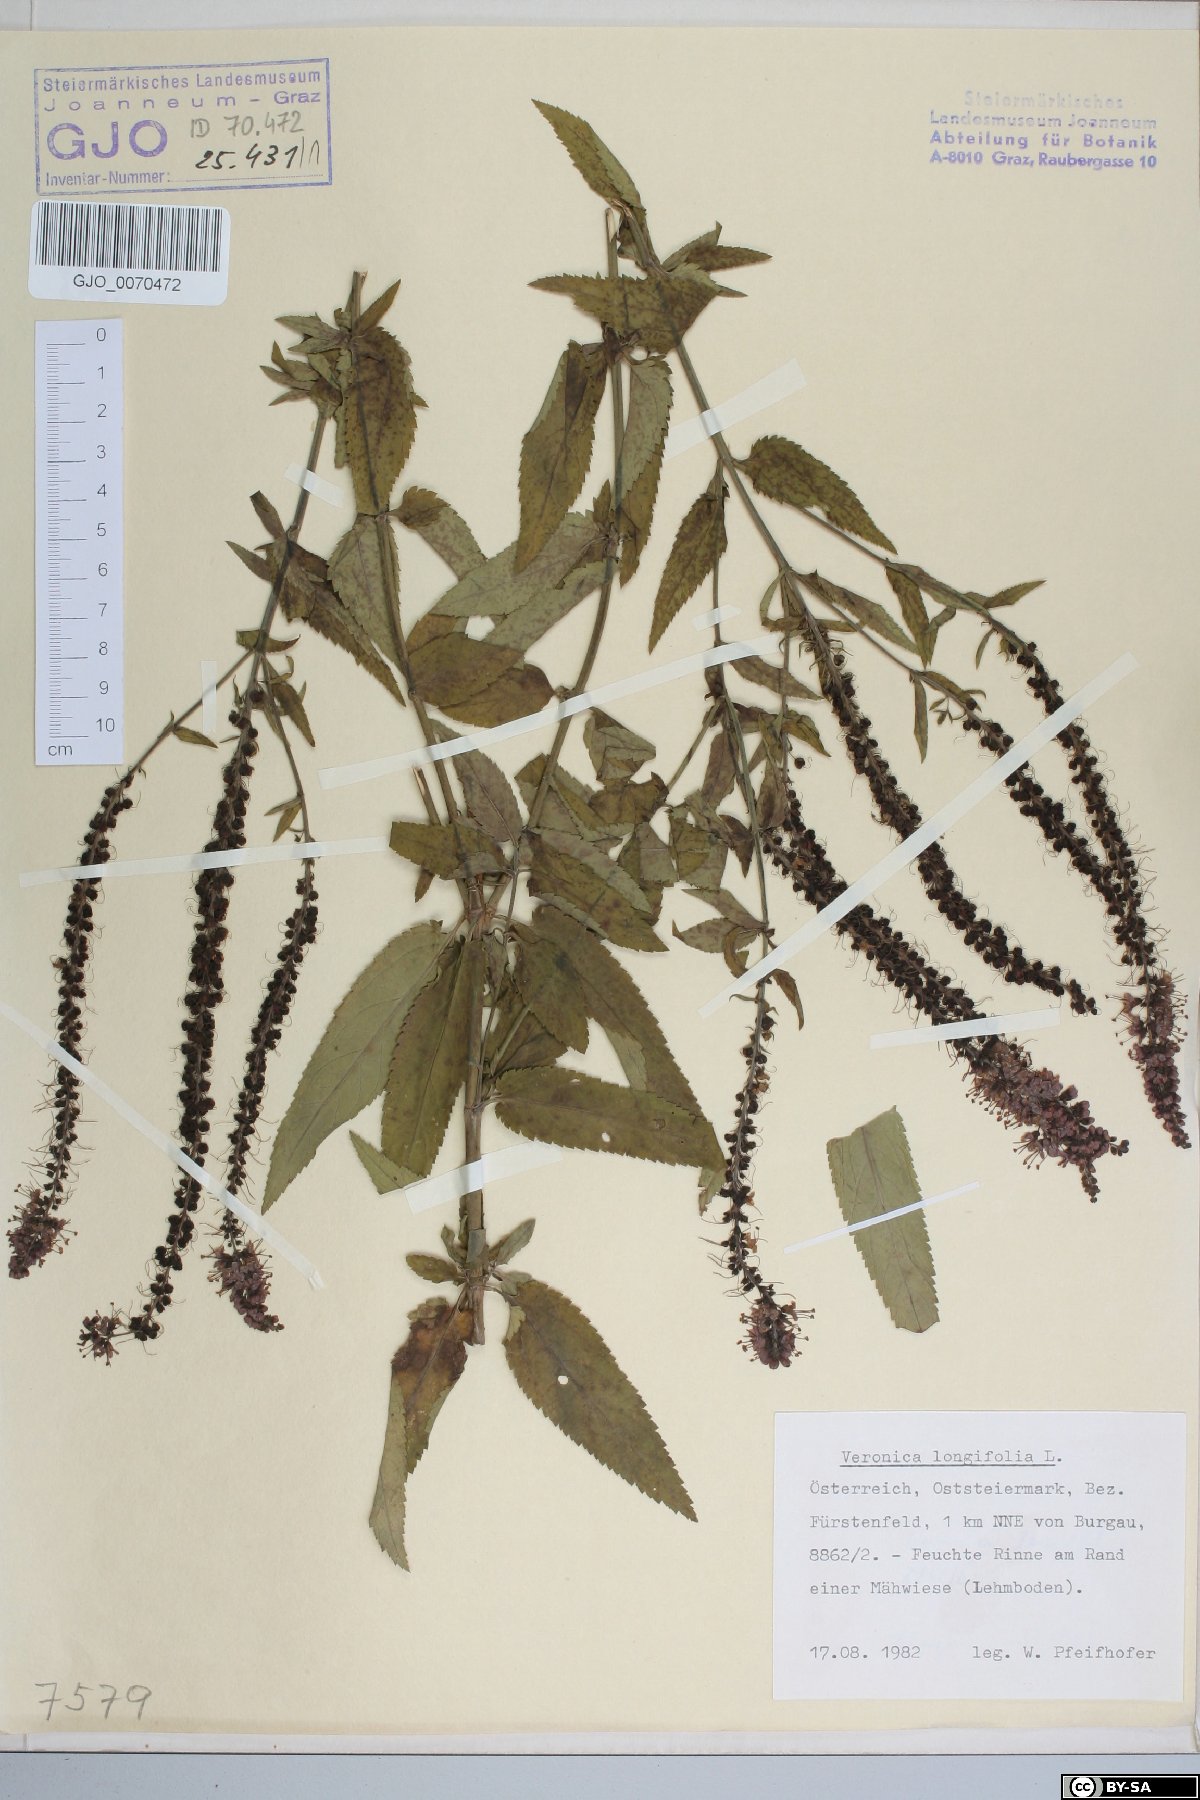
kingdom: Plantae
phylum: Tracheophyta
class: Magnoliopsida
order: Lamiales
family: Plantaginaceae
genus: Veronica
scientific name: Veronica maritima
